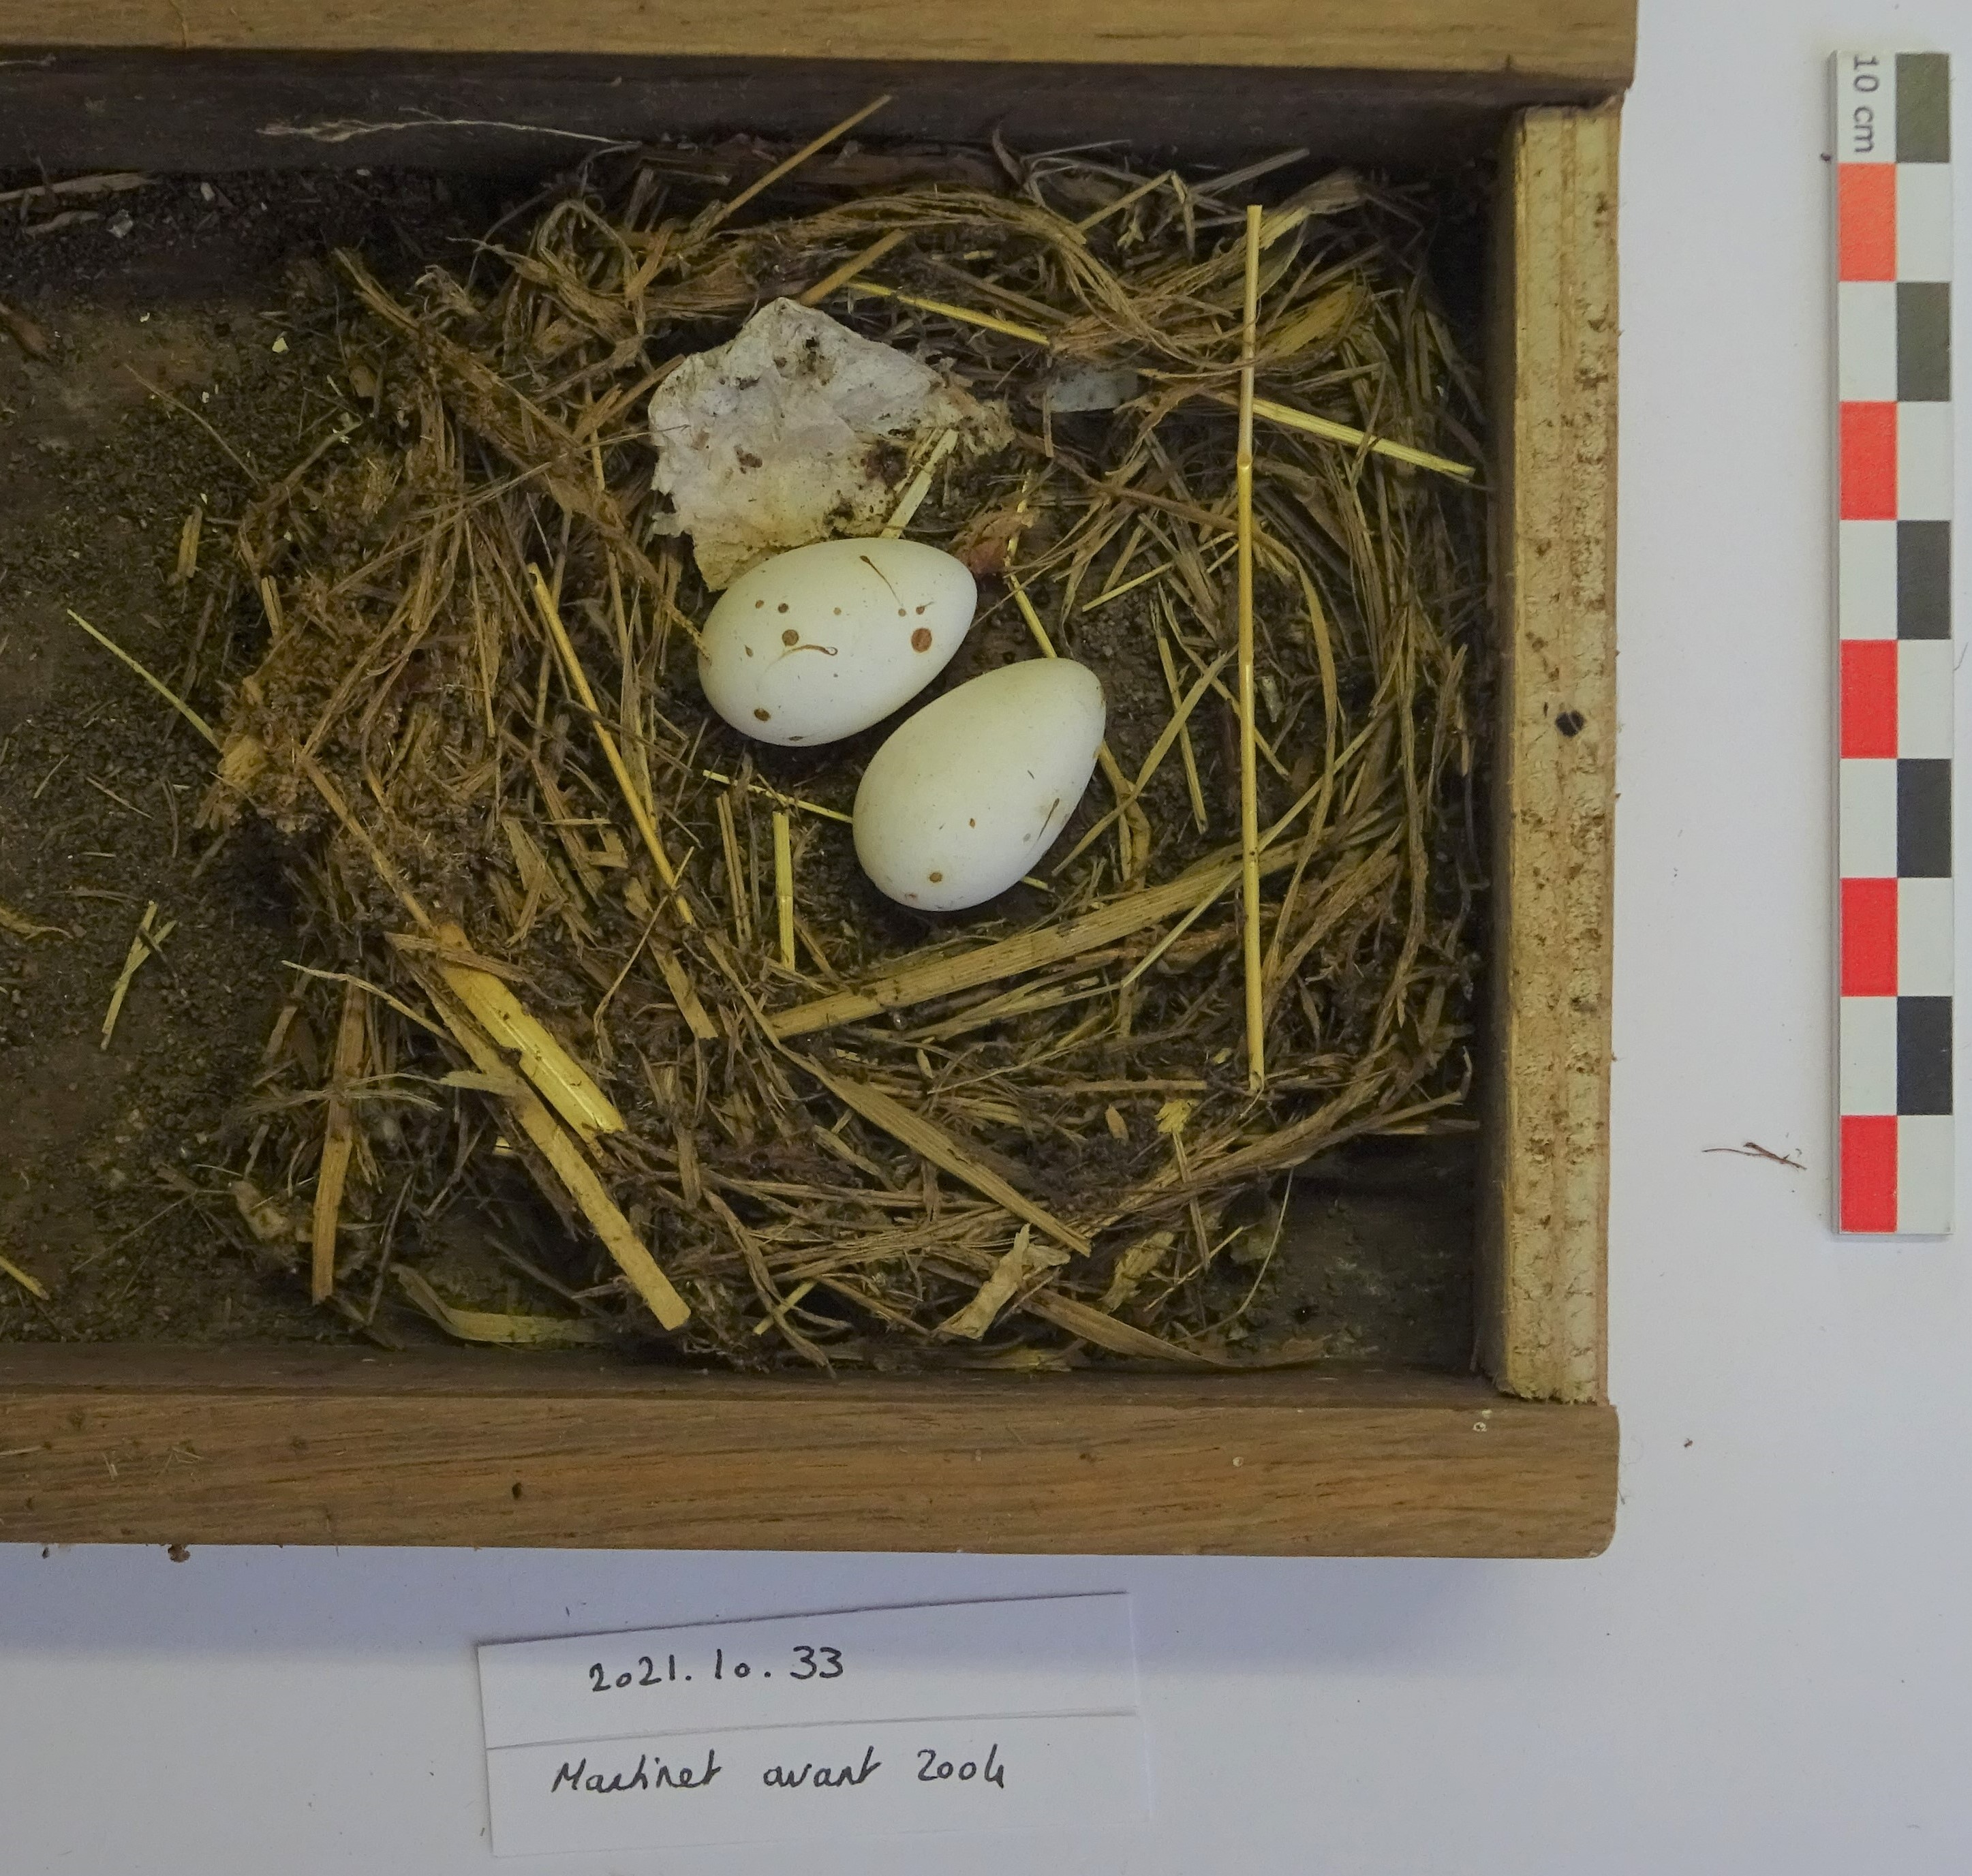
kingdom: Animalia
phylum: Chordata
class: Aves
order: Apodiformes
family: Apodidae
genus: Apus
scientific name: Apus apus
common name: Common swift
